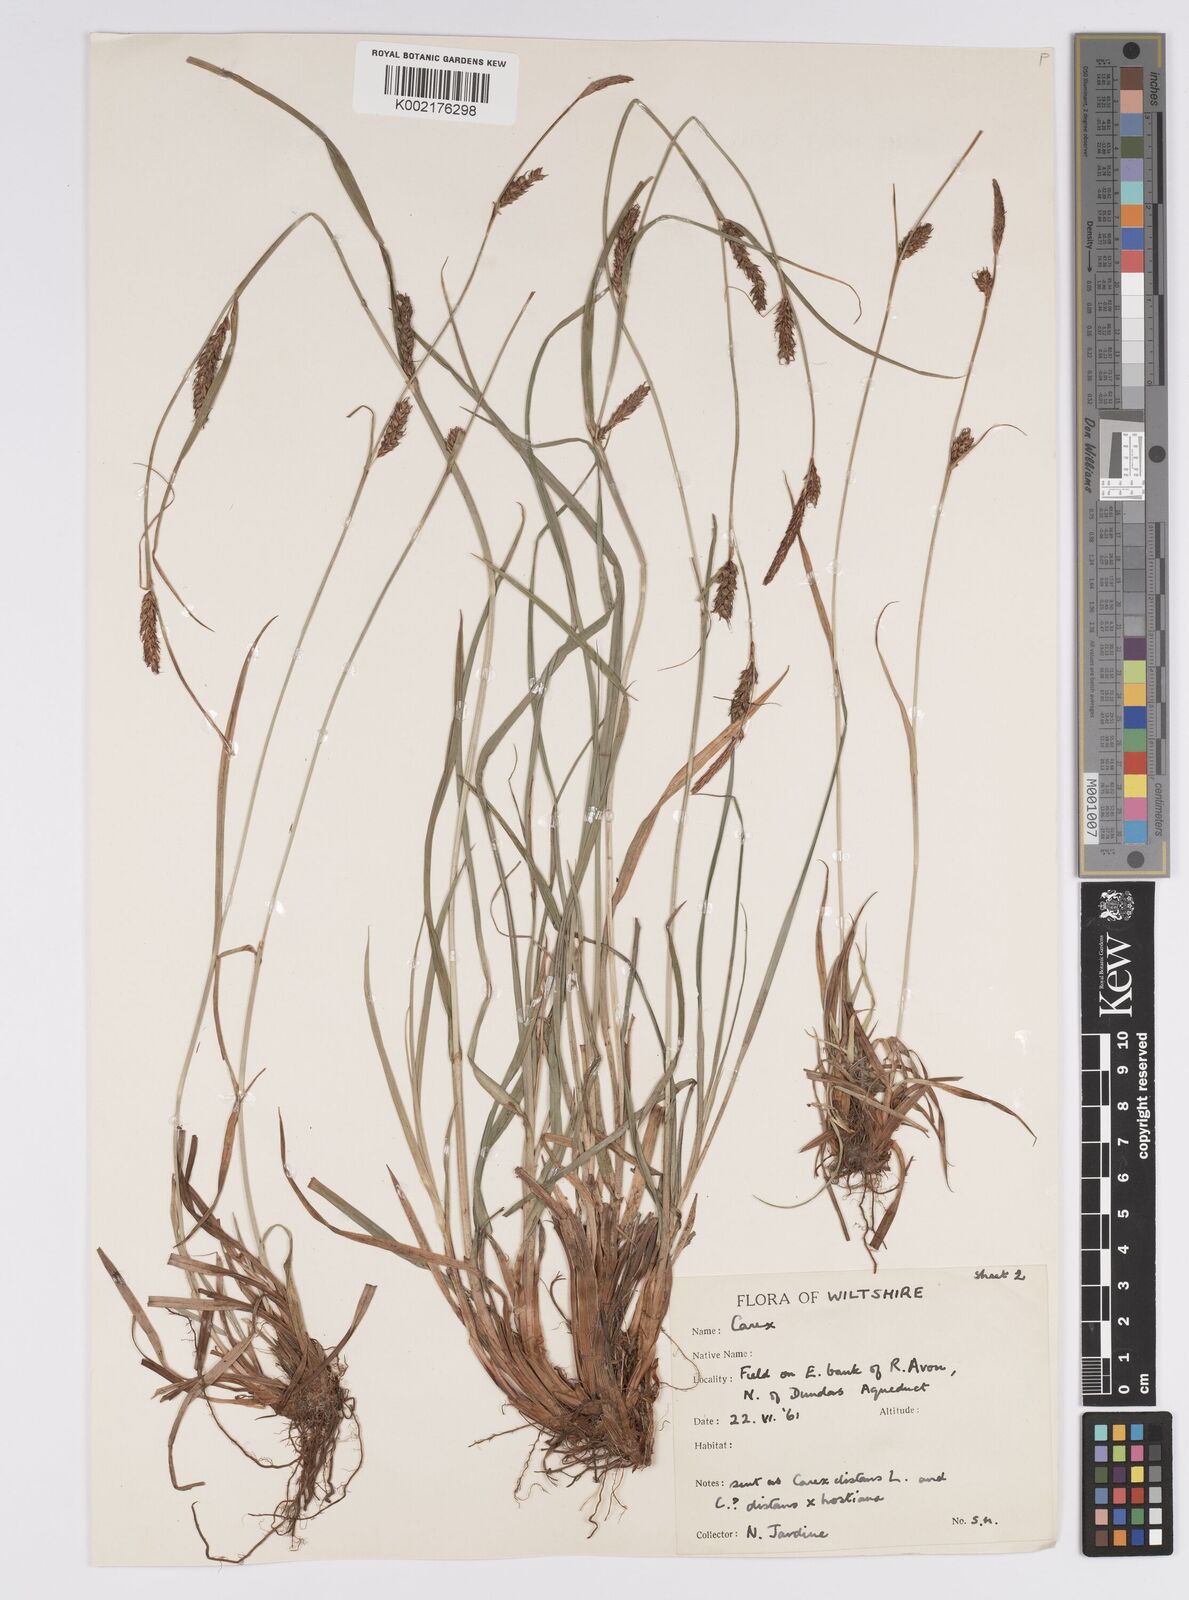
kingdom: Plantae
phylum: Tracheophyta
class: Liliopsida
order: Poales
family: Cyperaceae
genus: Carex
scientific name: Carex distans
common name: Distant sedge
